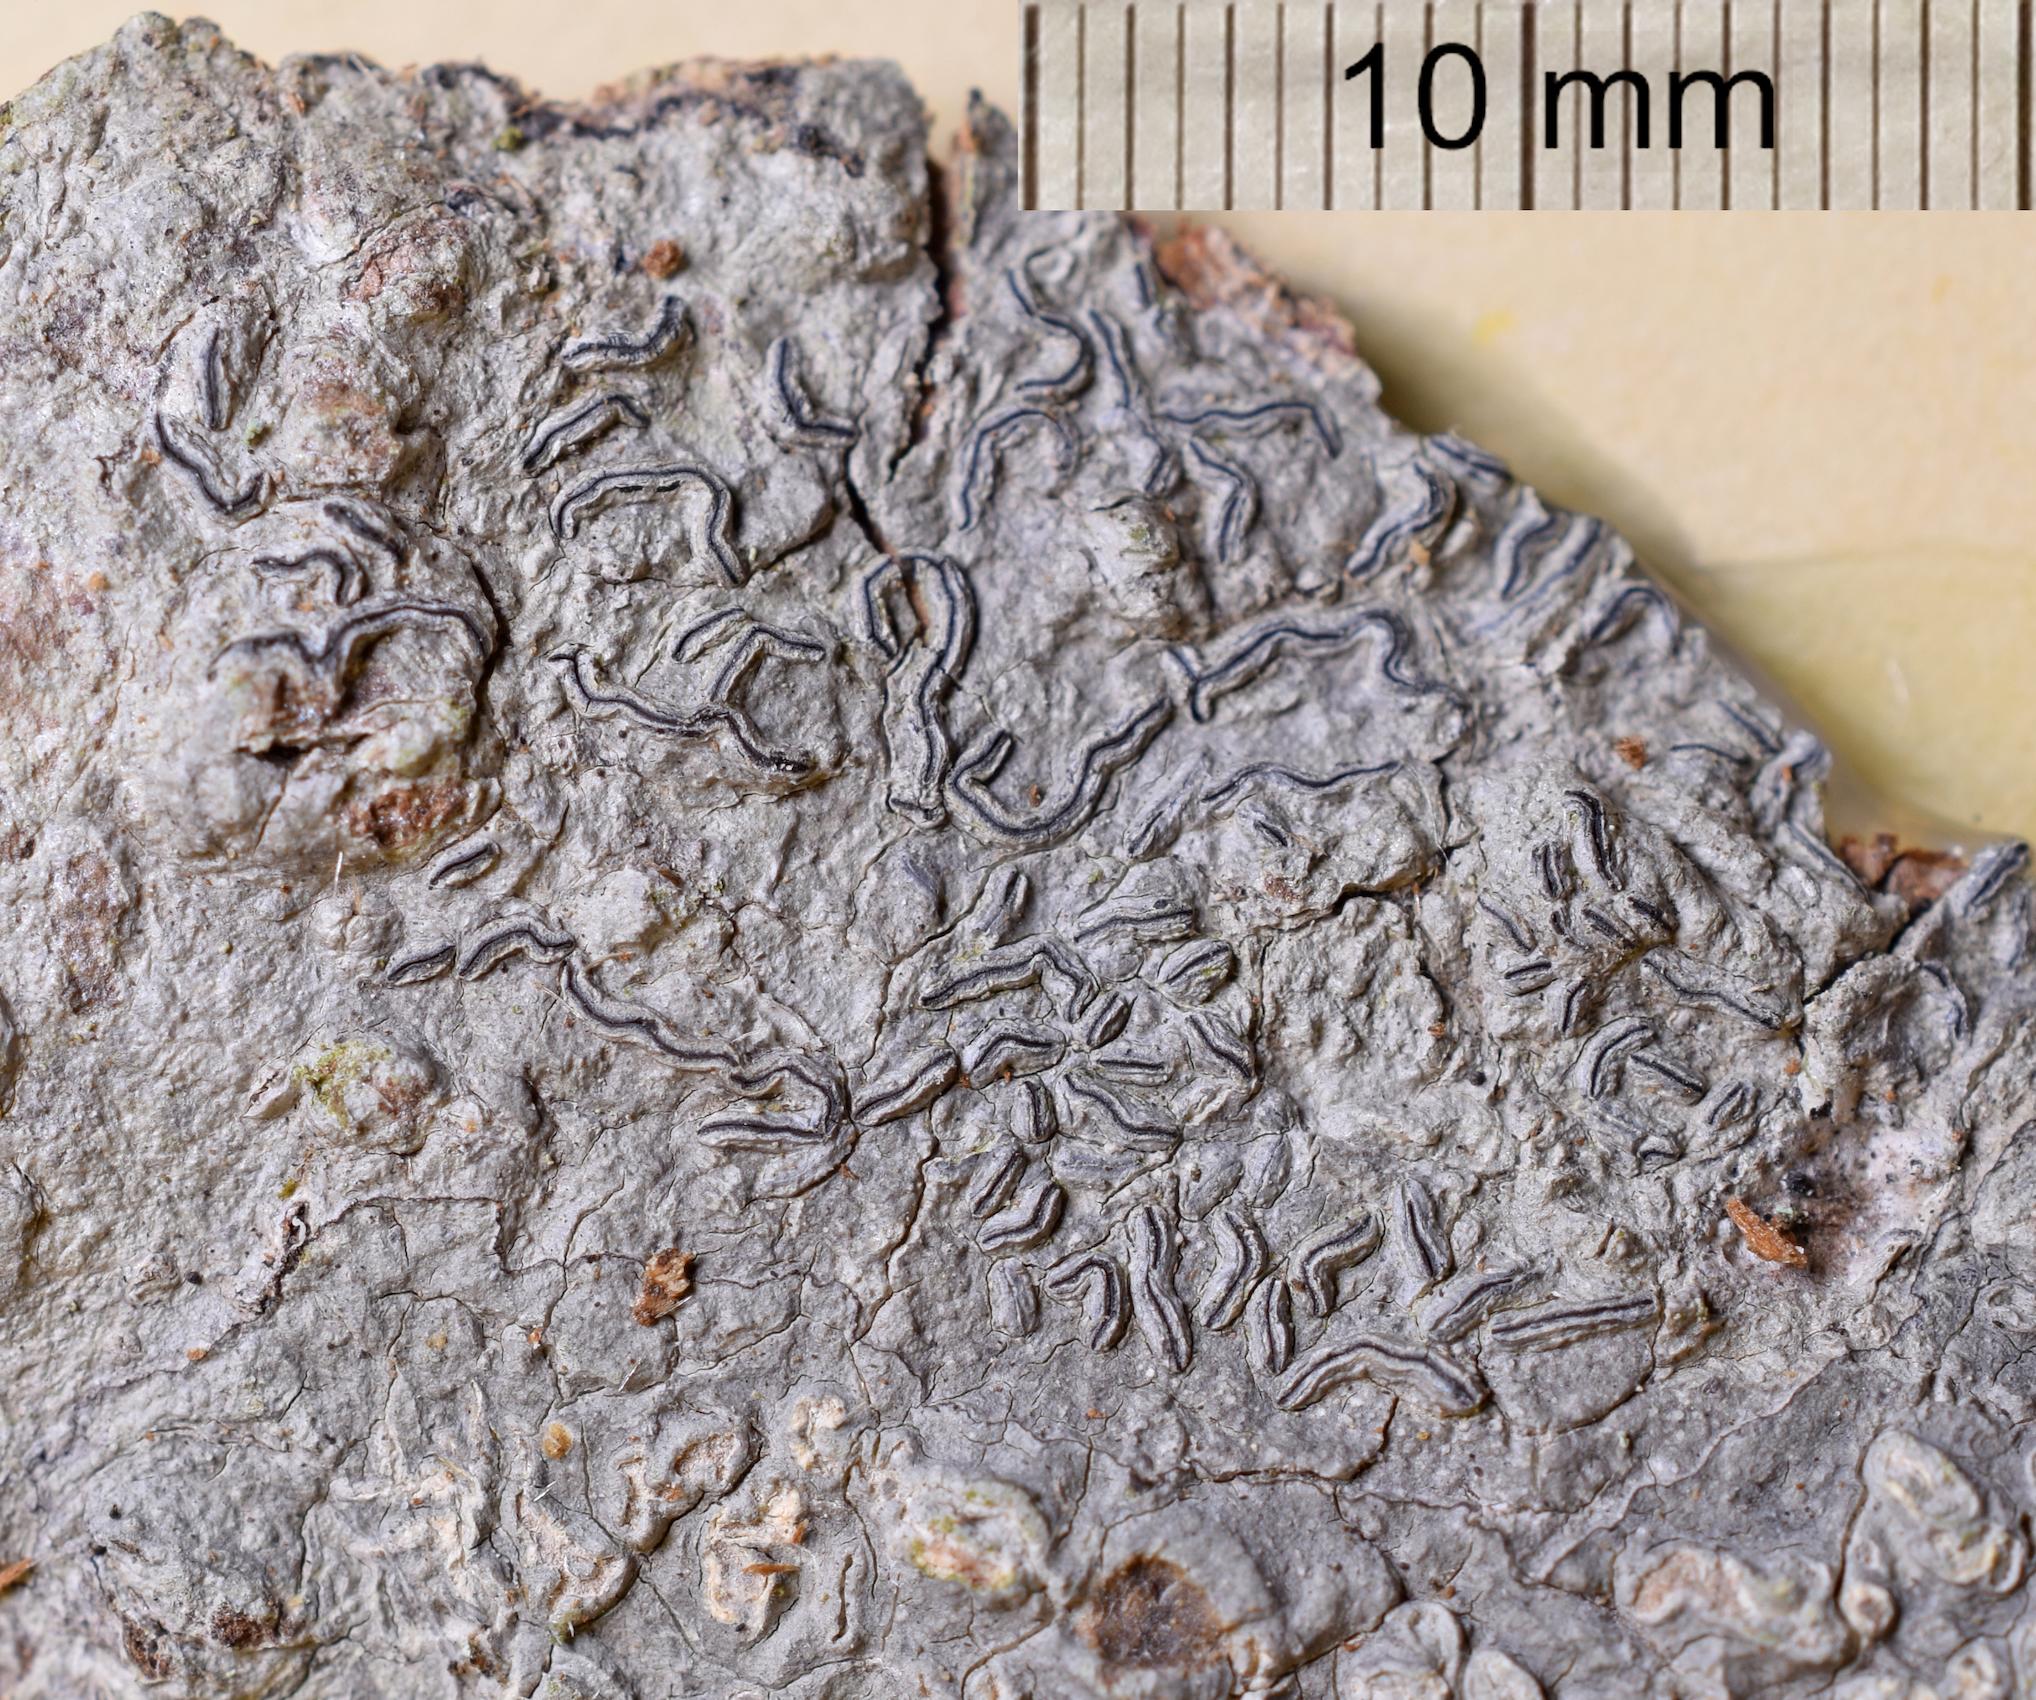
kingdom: Fungi
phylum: Ascomycota
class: Lecanoromycetes
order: Ostropales
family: Graphidaceae
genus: Diorygma
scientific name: Diorygma
